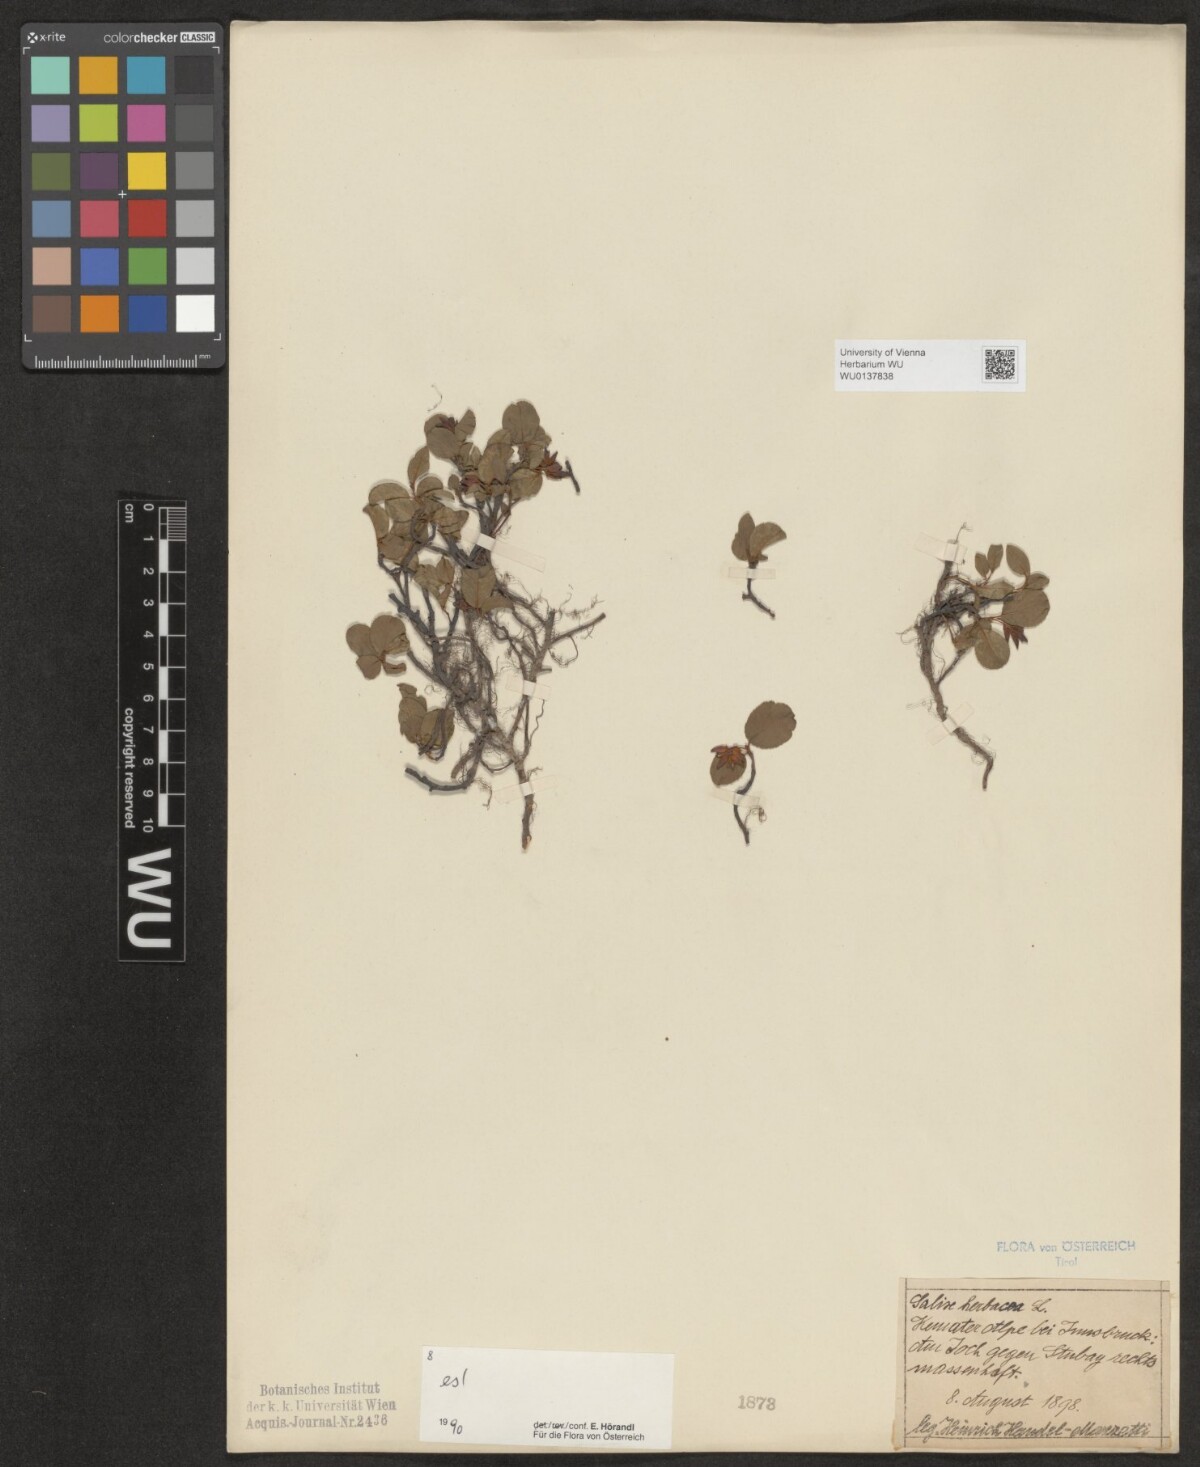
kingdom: Plantae
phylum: Tracheophyta
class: Magnoliopsida
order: Malpighiales
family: Salicaceae
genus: Salix
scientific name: Salix herbacea
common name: Dwarf willow
